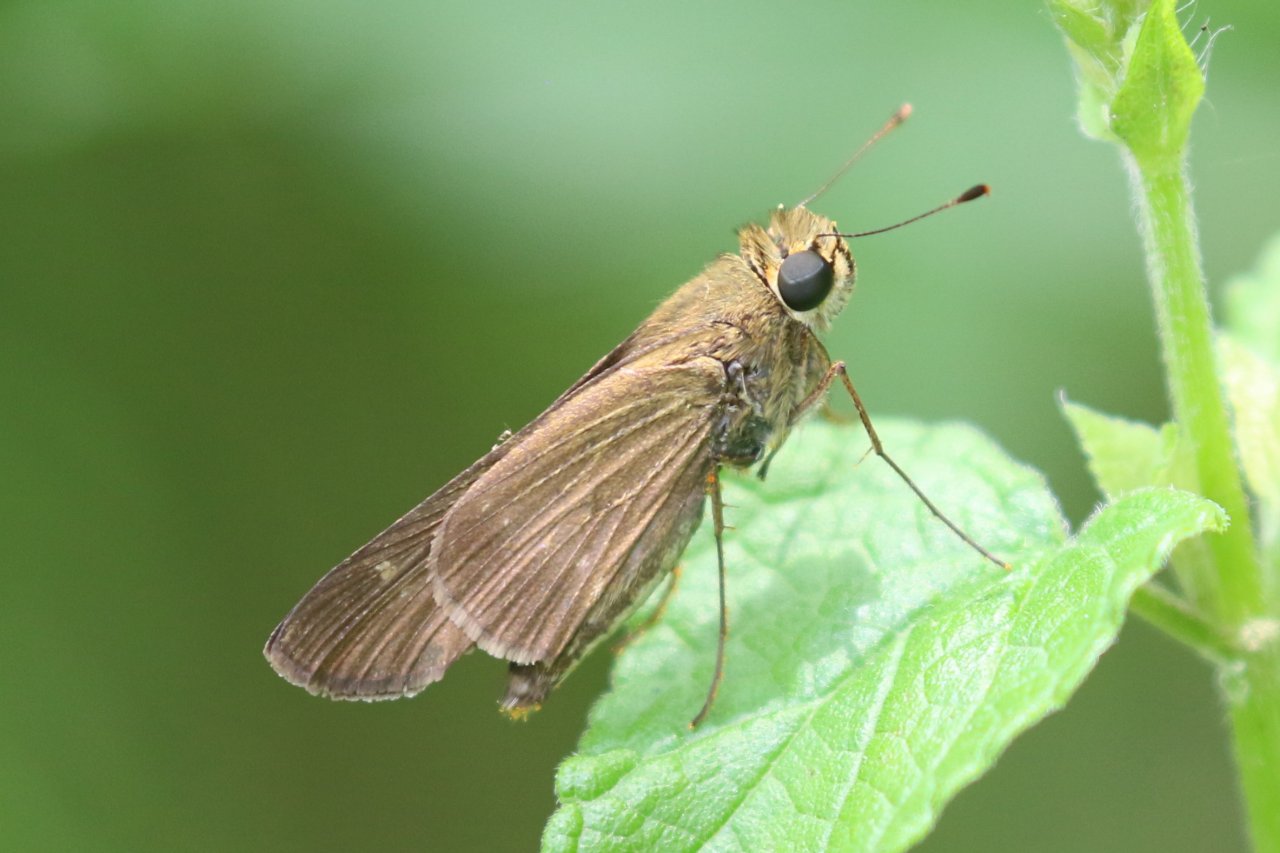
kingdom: Animalia
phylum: Arthropoda
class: Insecta
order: Lepidoptera
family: Hesperiidae
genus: Panoquina
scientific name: Panoquina
